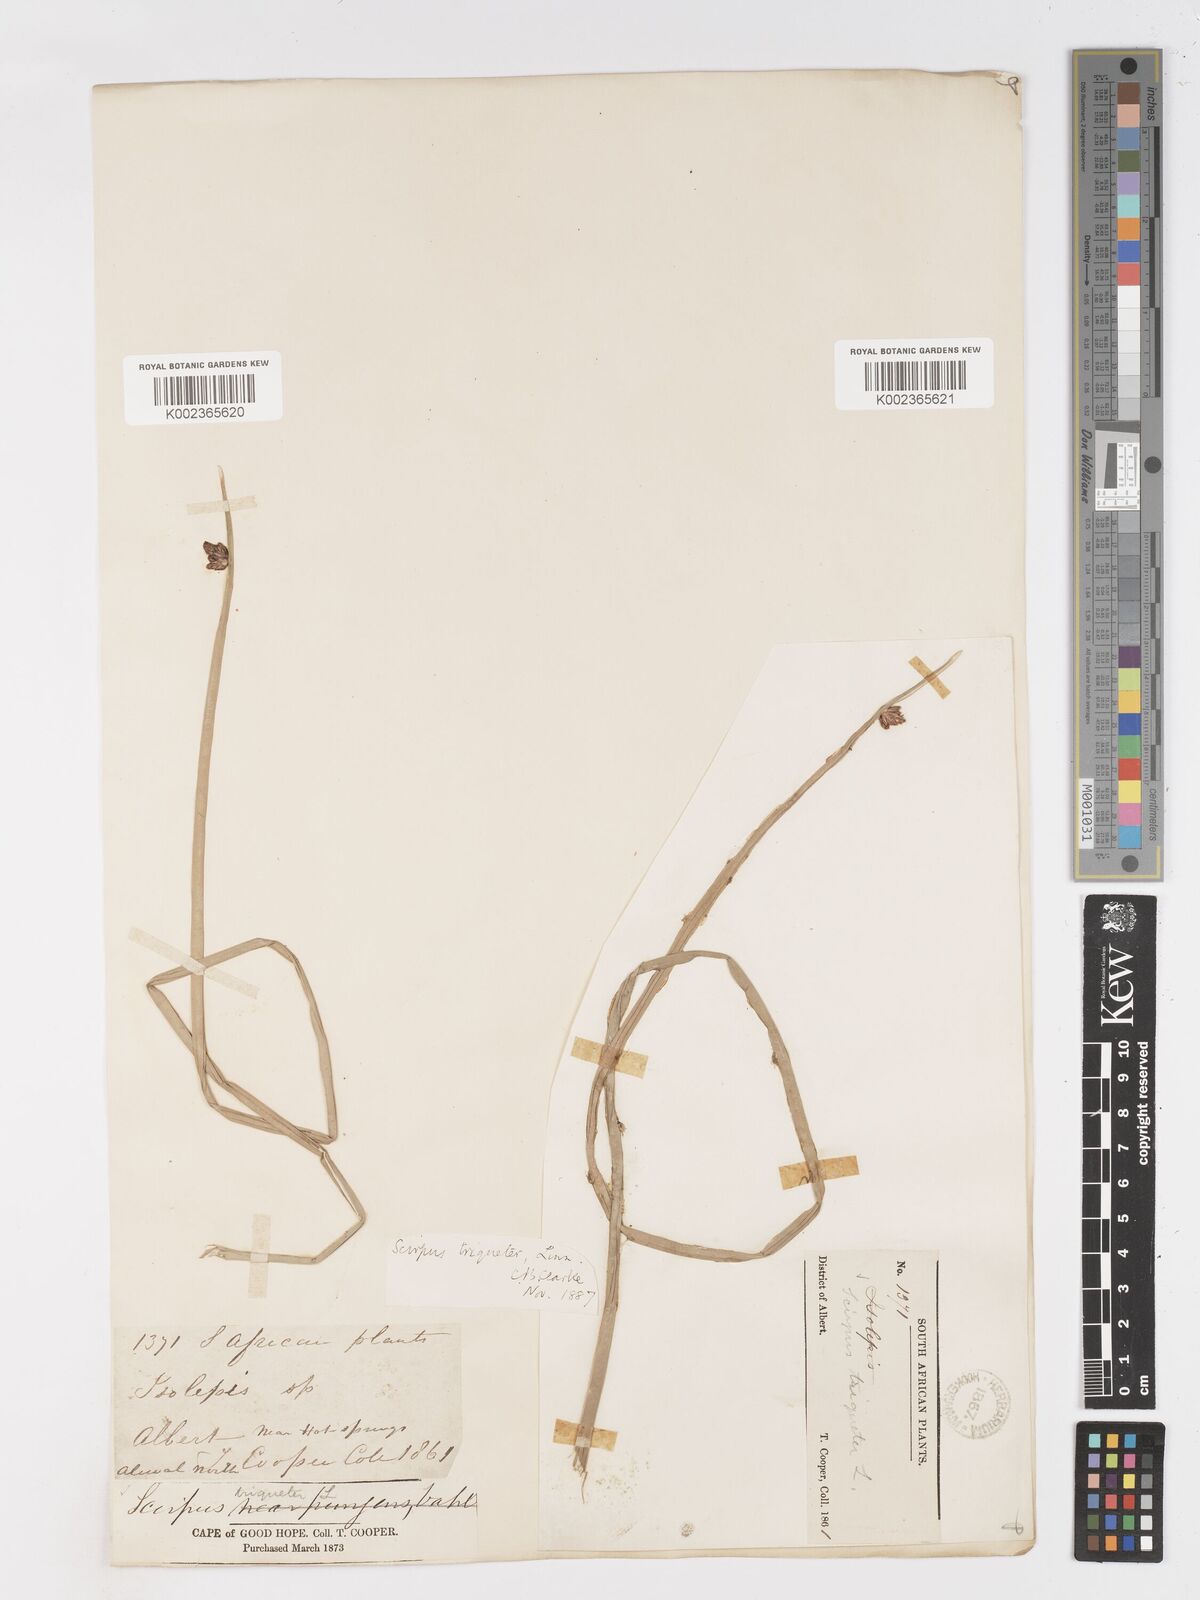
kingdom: Plantae
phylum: Tracheophyta
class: Liliopsida
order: Poales
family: Cyperaceae
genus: Schoenoplectus
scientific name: Schoenoplectus triqueter
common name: Triangular club-rush
